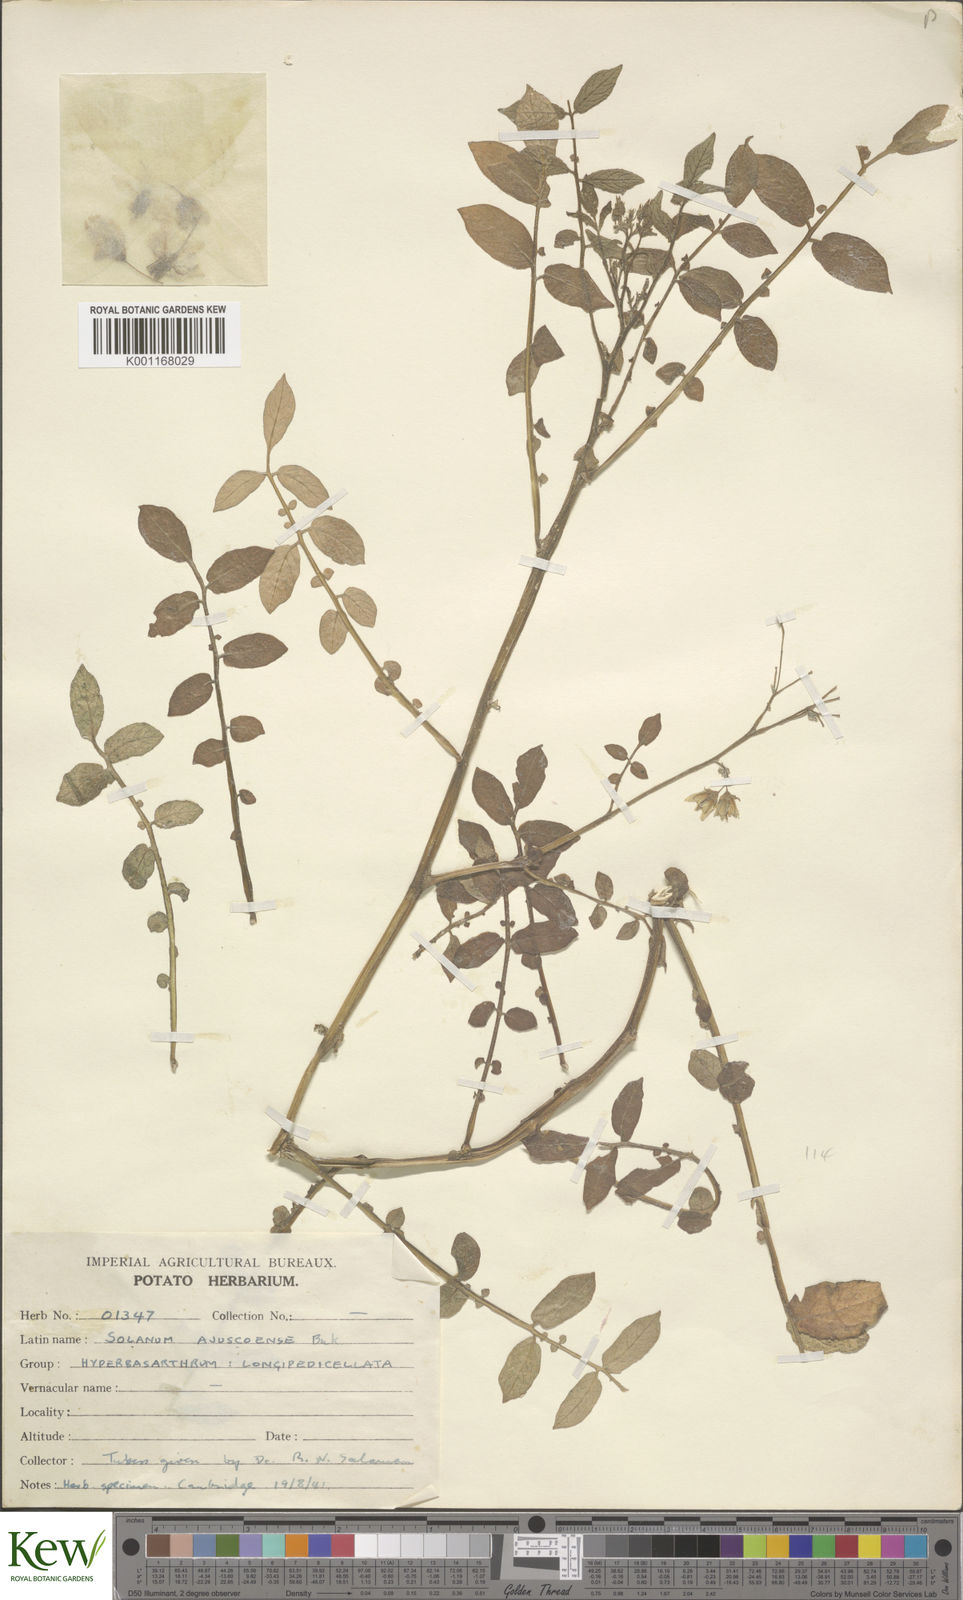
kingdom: Plantae
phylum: Tracheophyta
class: Magnoliopsida
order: Solanales
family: Solanaceae
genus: Solanum
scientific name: Solanum stoloniferum
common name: Fendler's nighshade
